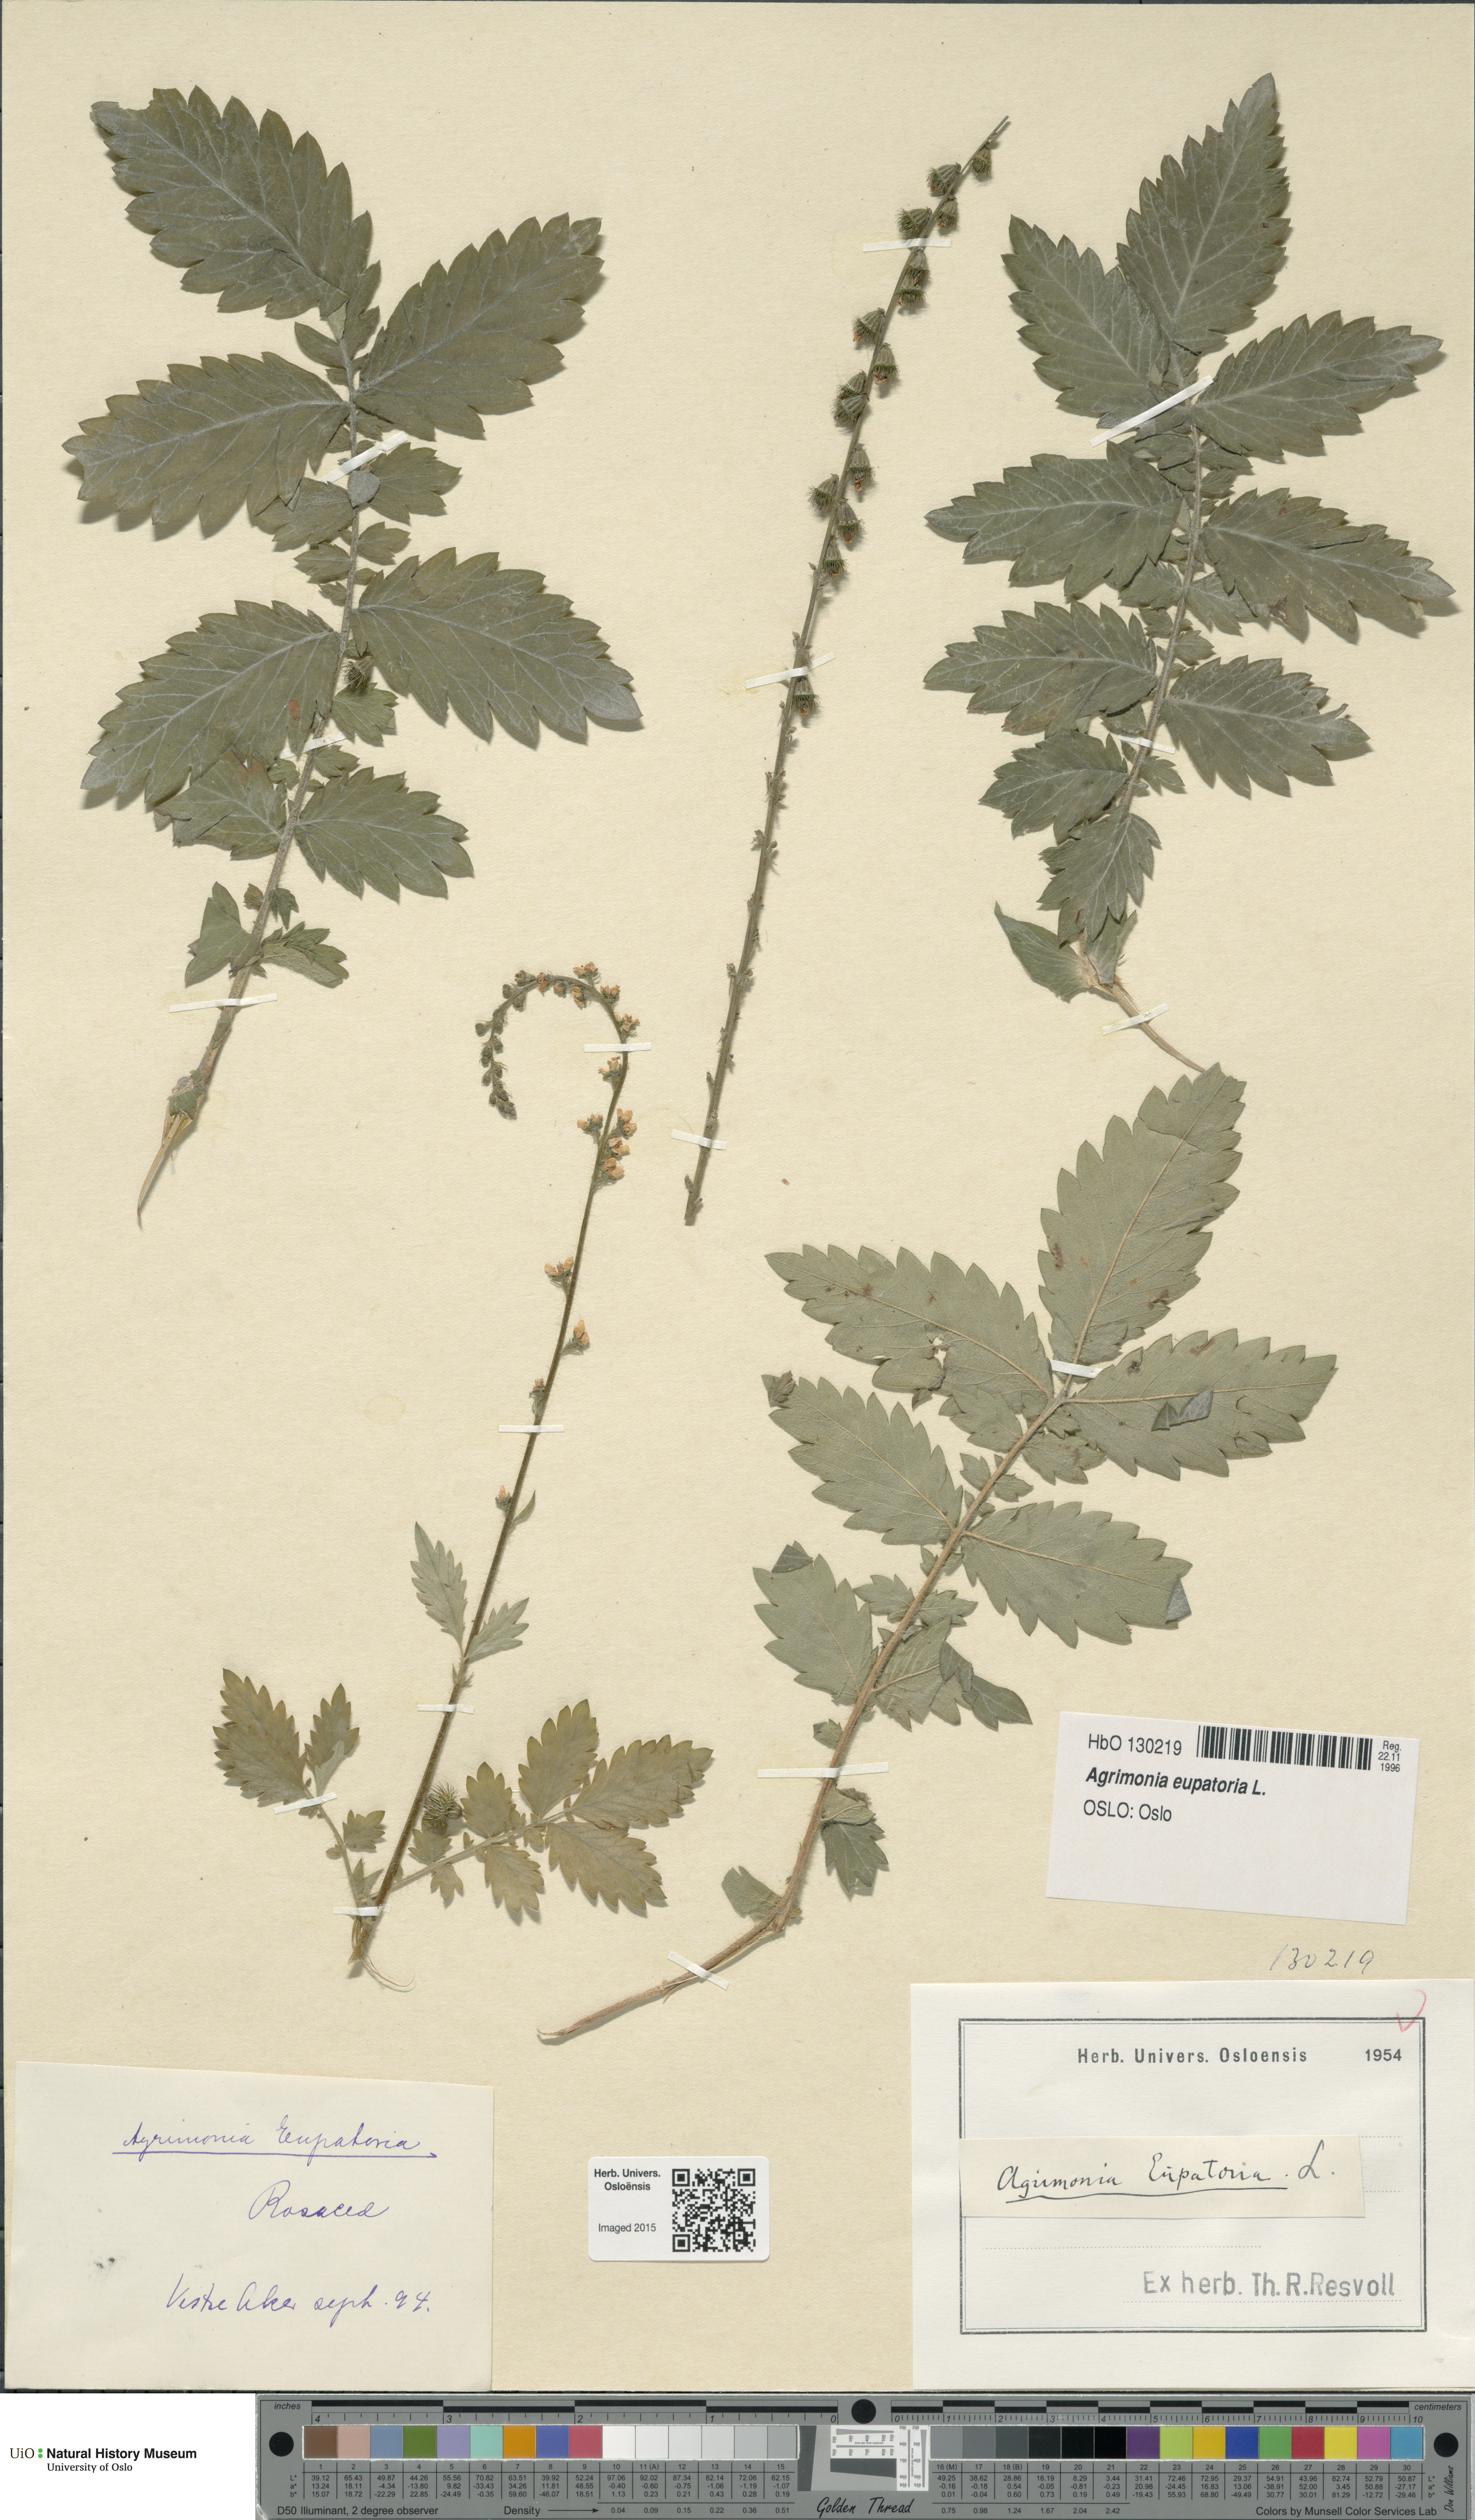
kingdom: Plantae
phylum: Tracheophyta
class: Magnoliopsida
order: Rosales
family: Rosaceae
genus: Agrimonia
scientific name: Agrimonia eupatoria
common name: Agrimony
